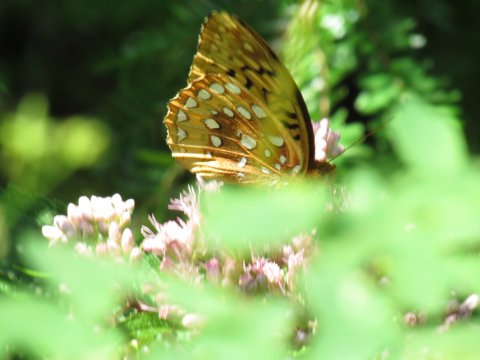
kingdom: Animalia
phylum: Arthropoda
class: Insecta
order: Lepidoptera
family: Nymphalidae
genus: Speyeria
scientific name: Speyeria cybele
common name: Great Spangled Fritillary
